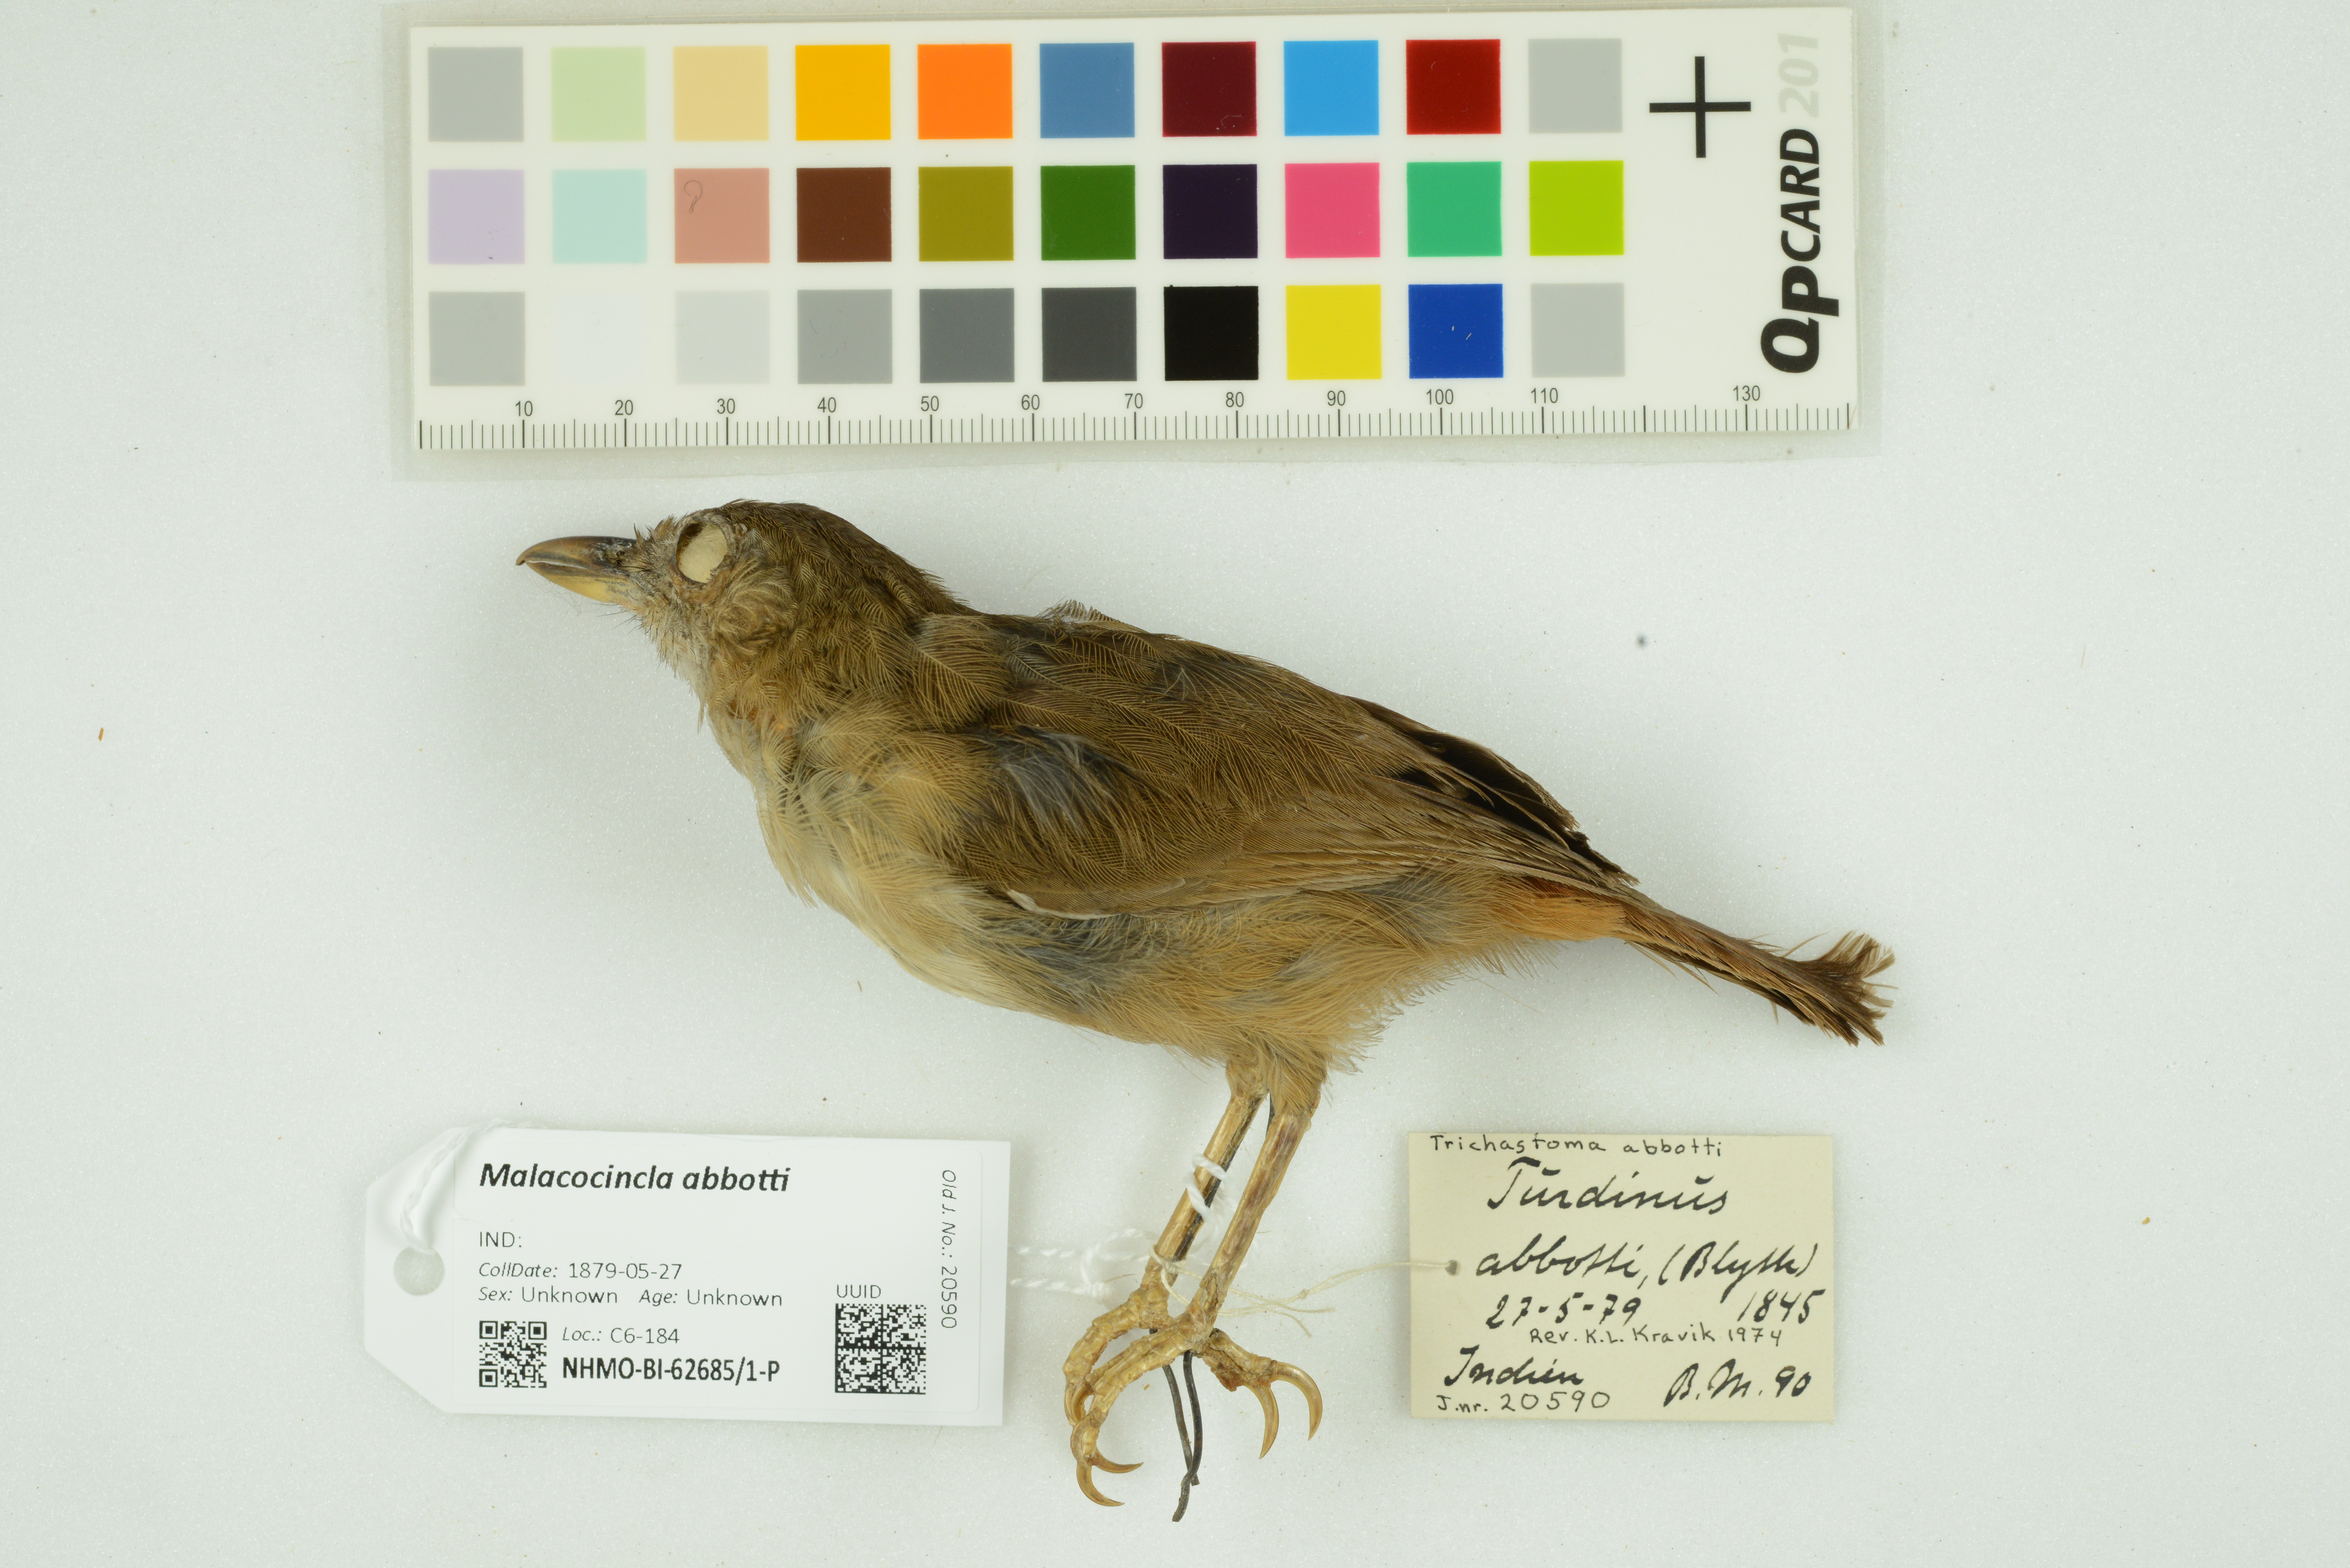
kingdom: Animalia
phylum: Chordata
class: Aves
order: Passeriformes
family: Pellorneidae
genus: Malacocincla
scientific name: Malacocincla abbotti
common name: Abbott's babbler
